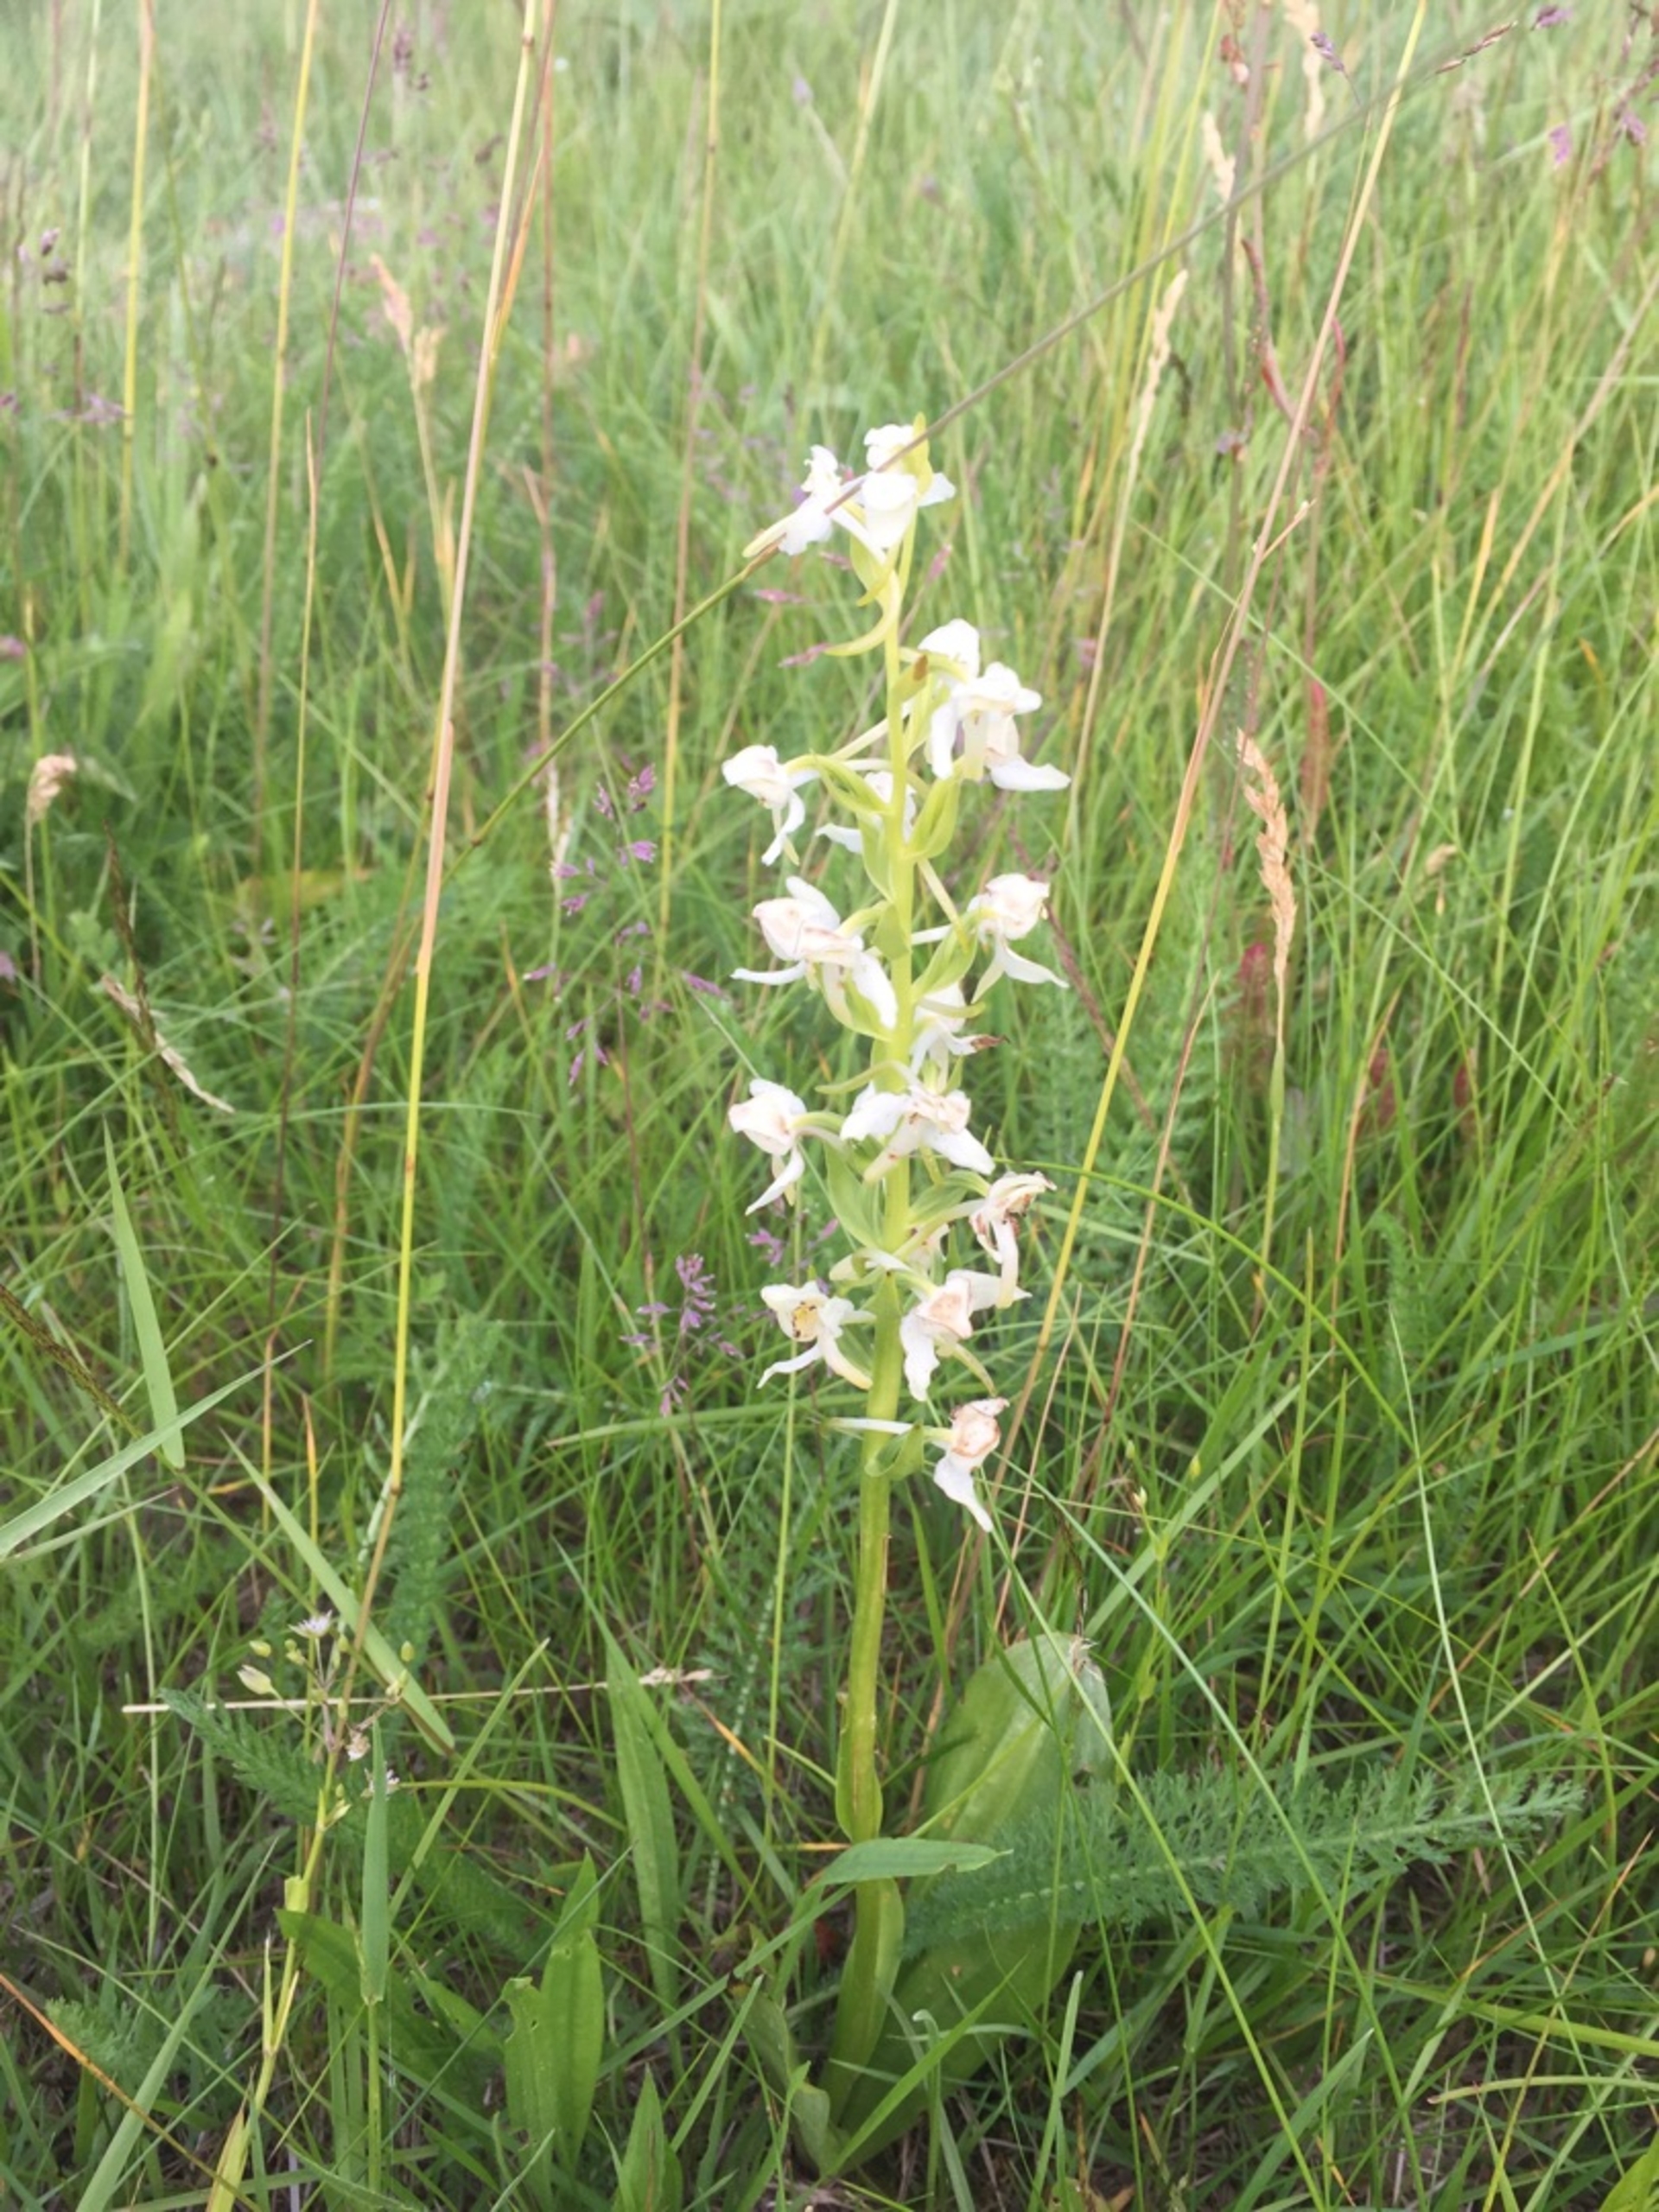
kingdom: Plantae
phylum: Tracheophyta
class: Liliopsida
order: Asparagales
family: Orchidaceae
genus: Platanthera
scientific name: Platanthera chlorantha
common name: Skov-gøgelilje
